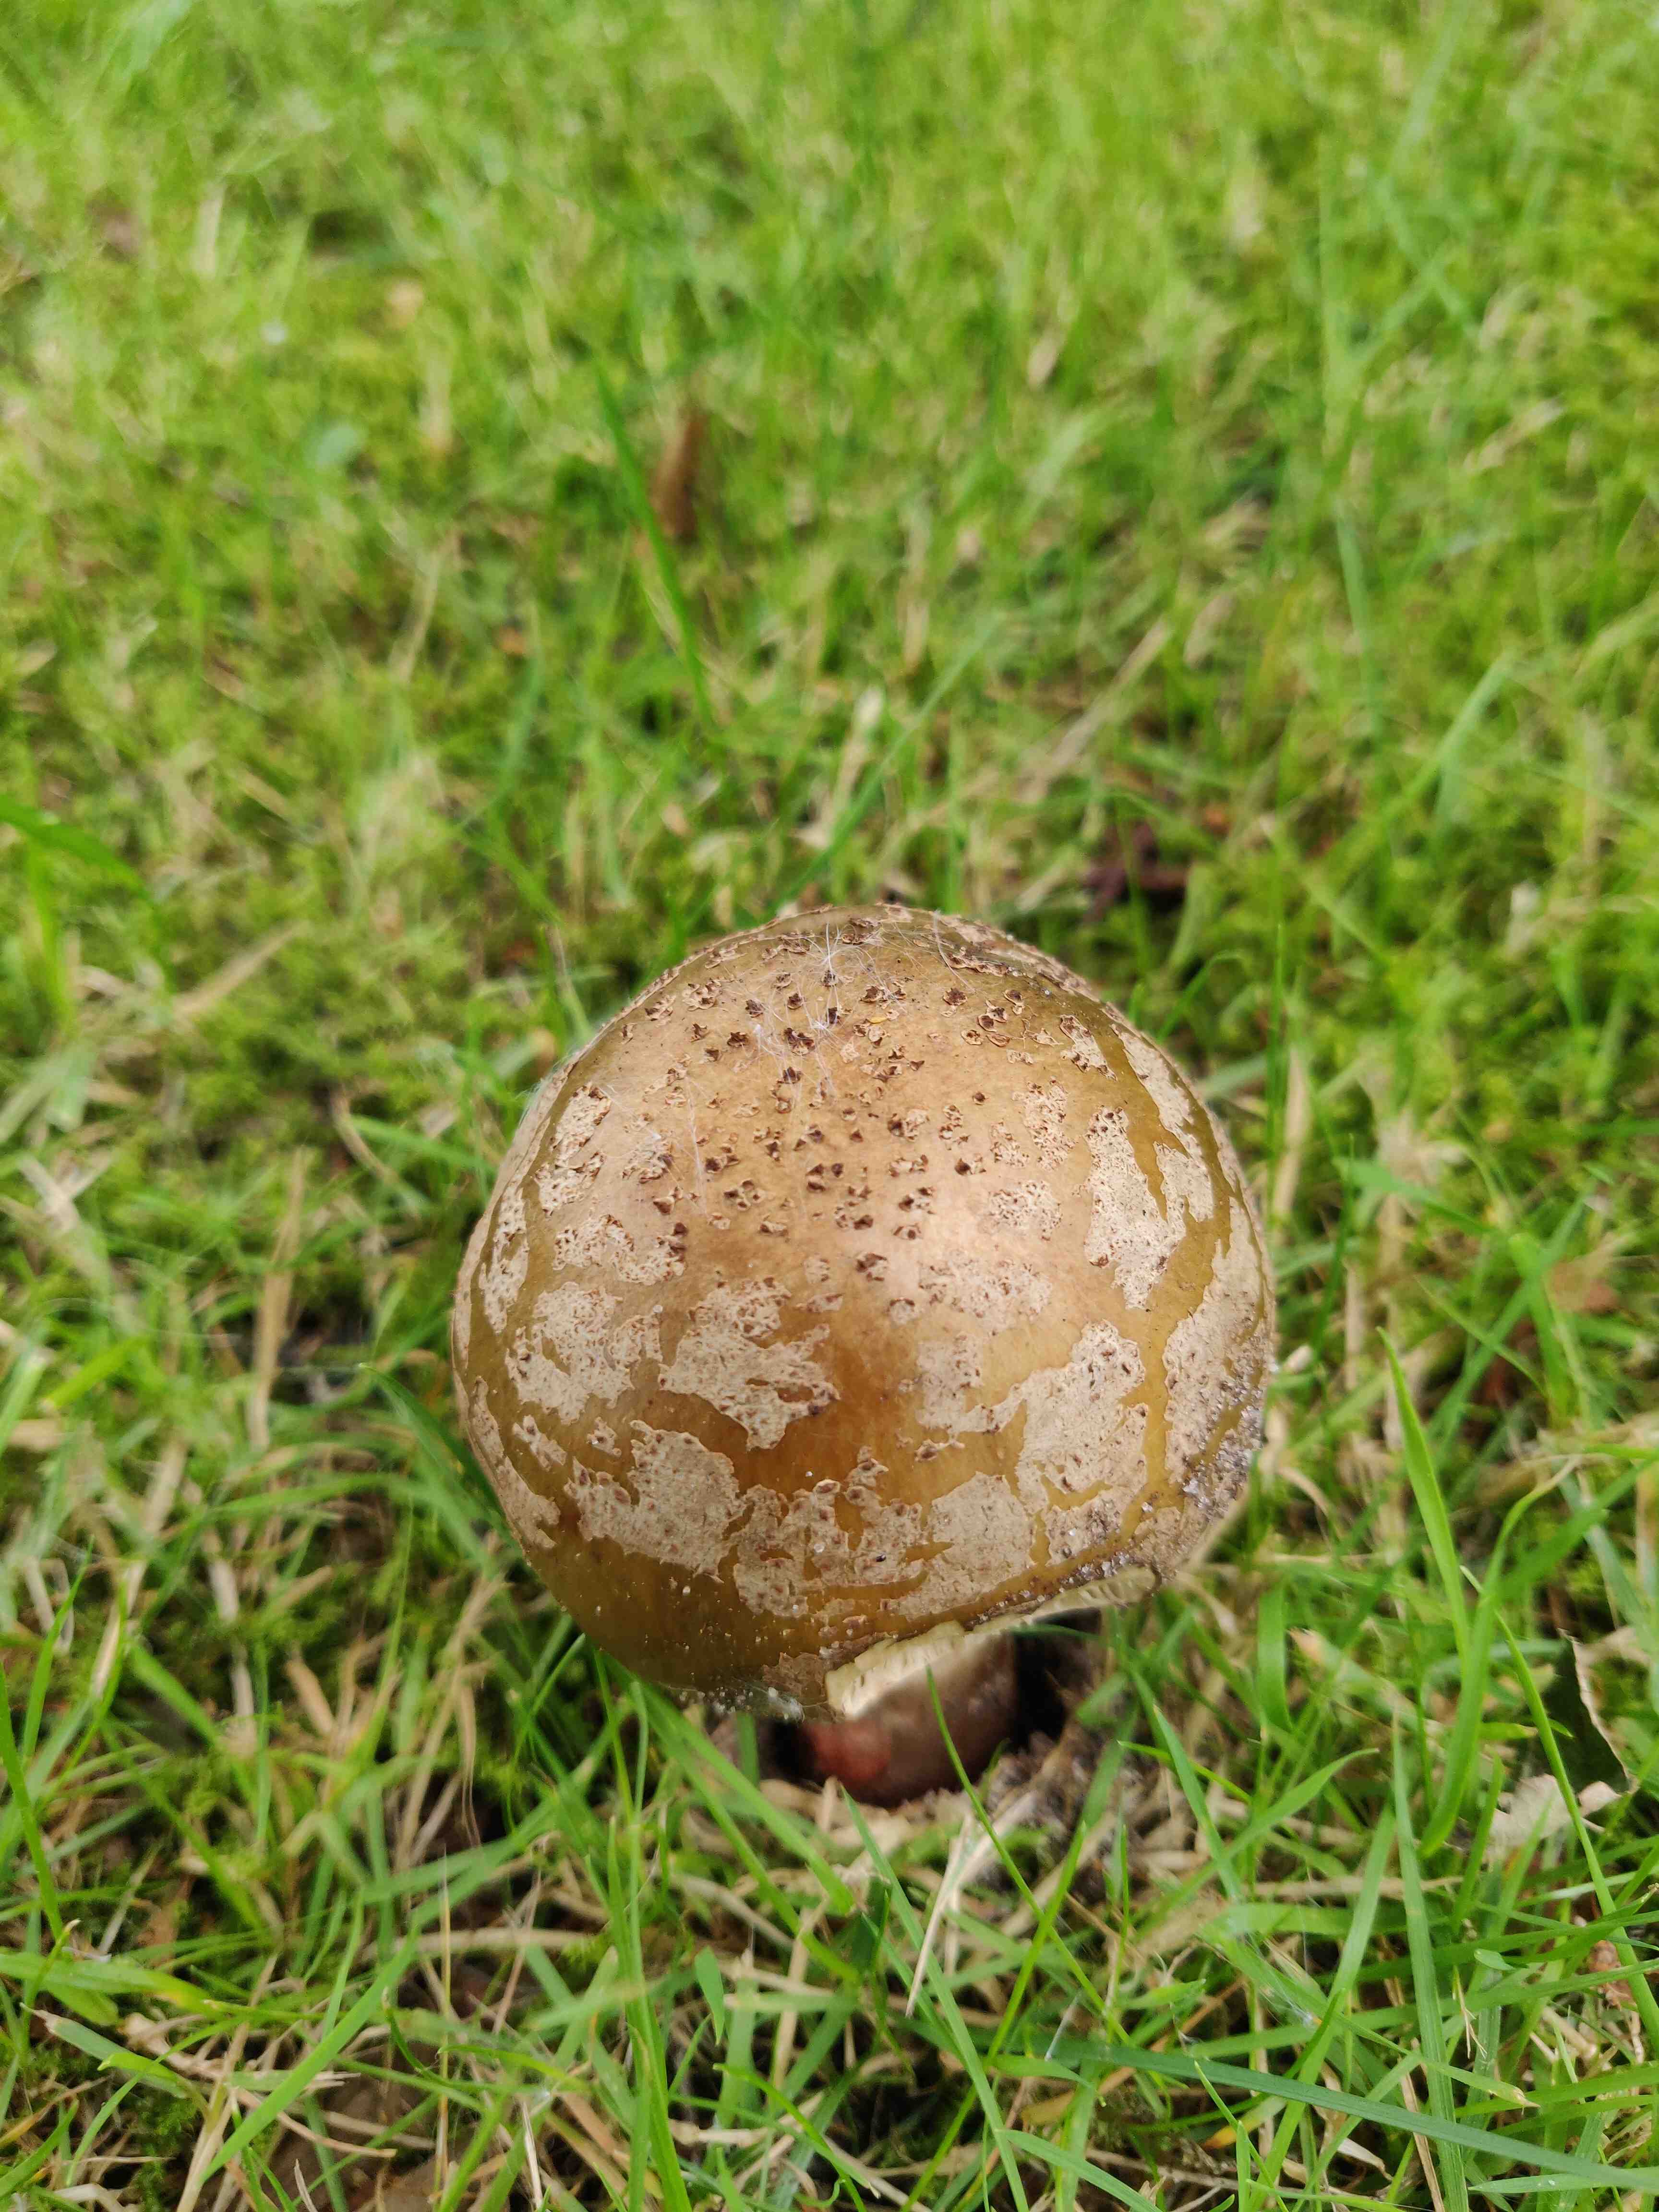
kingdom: Fungi
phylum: Basidiomycota
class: Agaricomycetes
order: Agaricales
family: Amanitaceae
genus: Amanita
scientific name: Amanita rubescens
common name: rødmende fluesvamp
